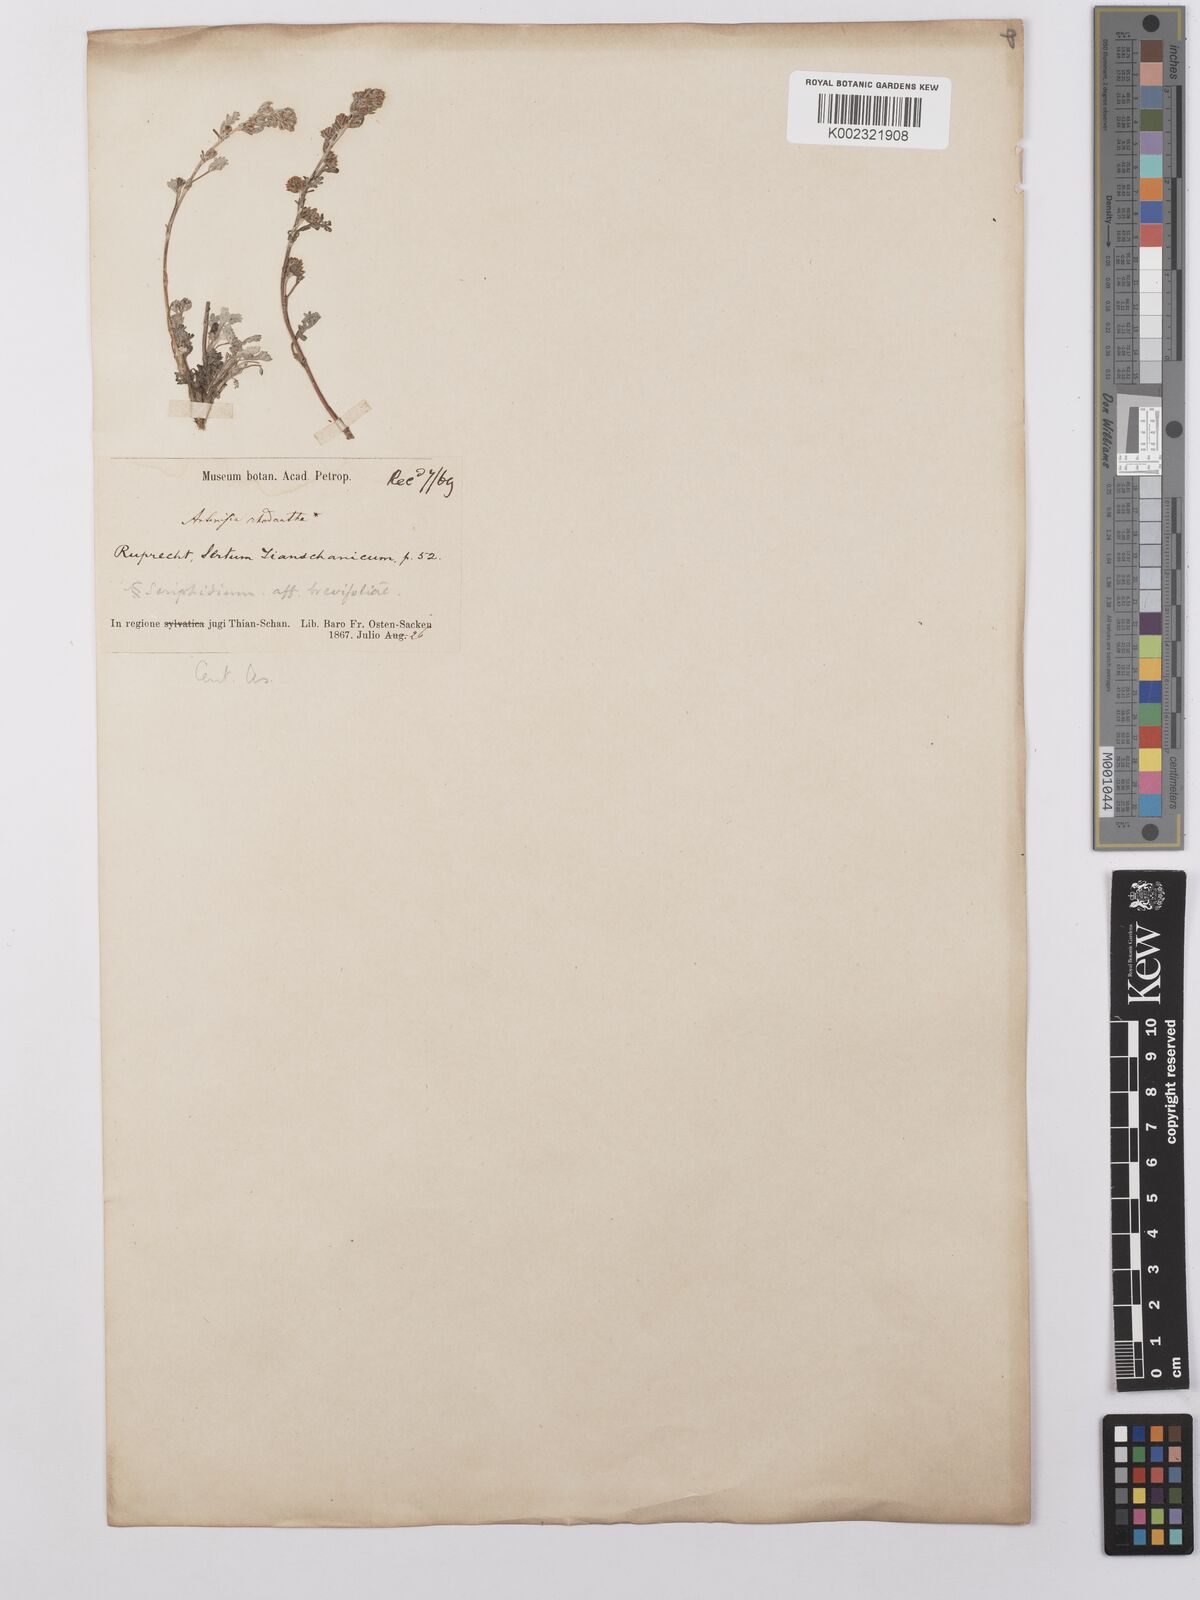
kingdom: Plantae
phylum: Tracheophyta
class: Magnoliopsida
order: Asterales
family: Asteraceae
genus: Artemisia
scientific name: Artemisia rhodantha
